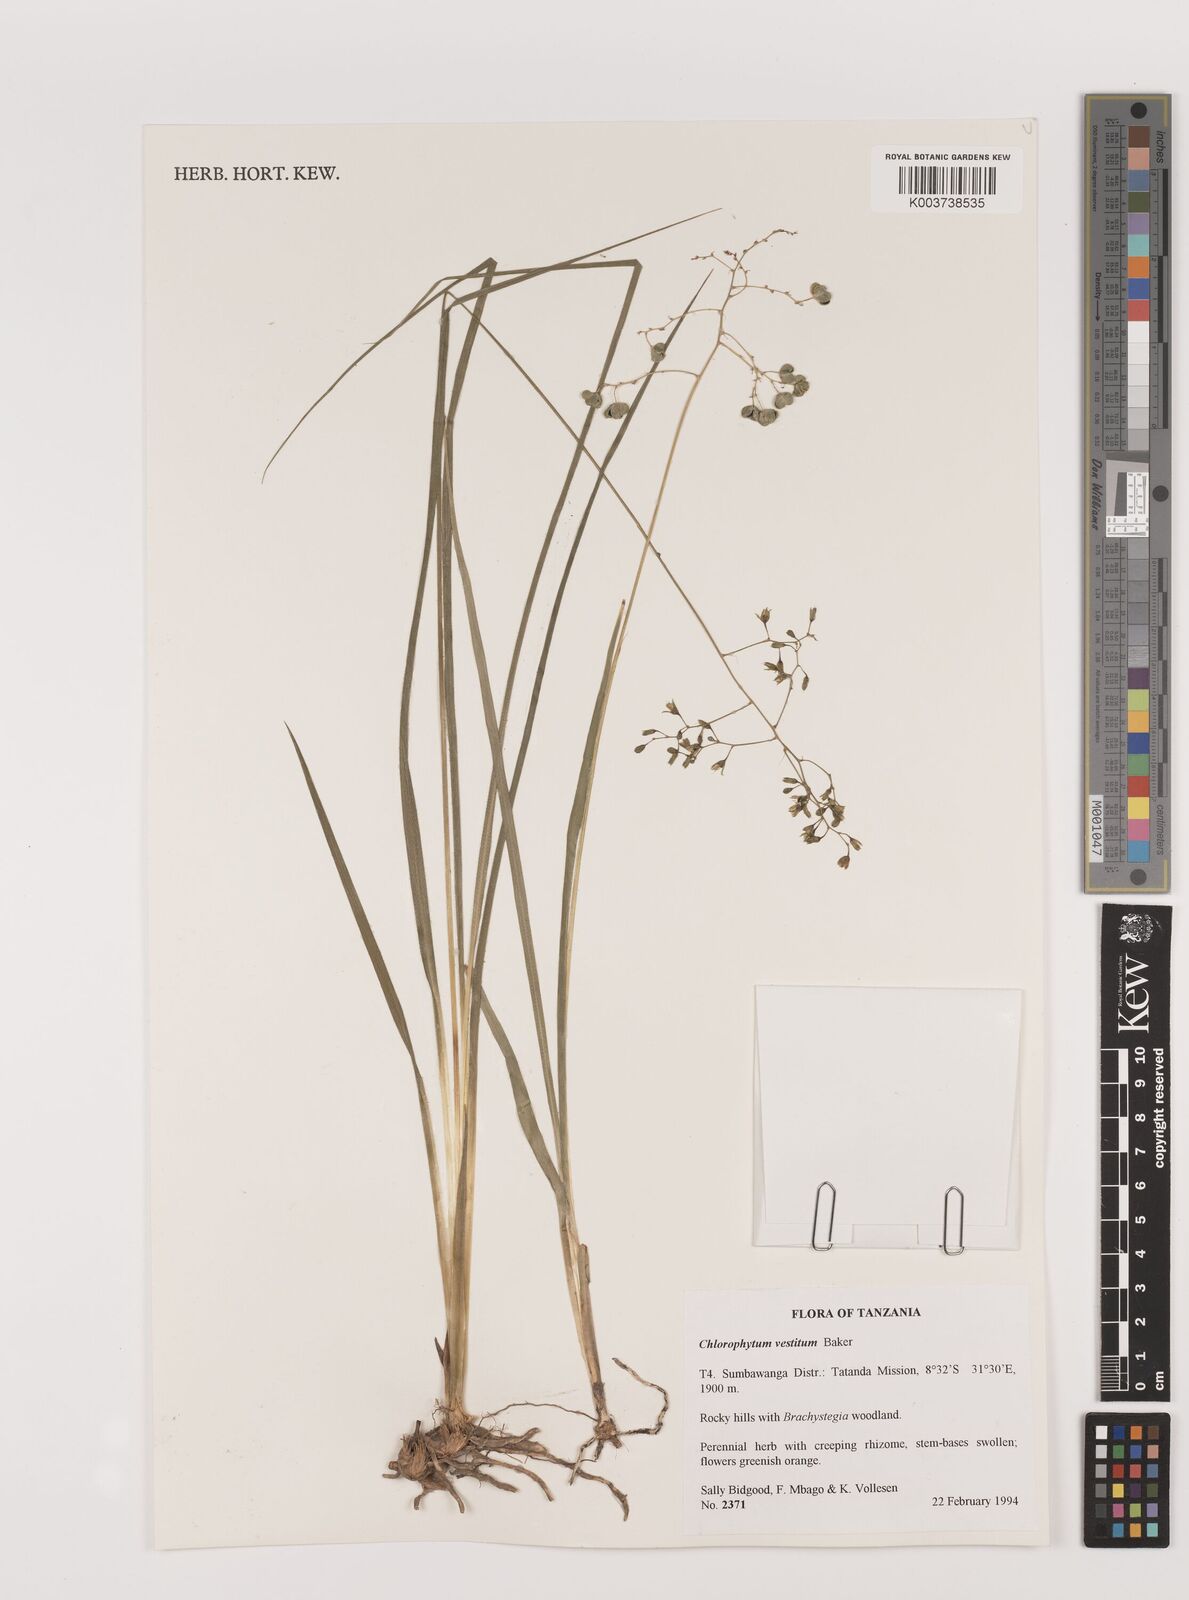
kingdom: Plantae
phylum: Tracheophyta
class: Liliopsida
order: Asparagales
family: Asparagaceae
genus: Chlorophytum
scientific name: Chlorophytum vestitum
